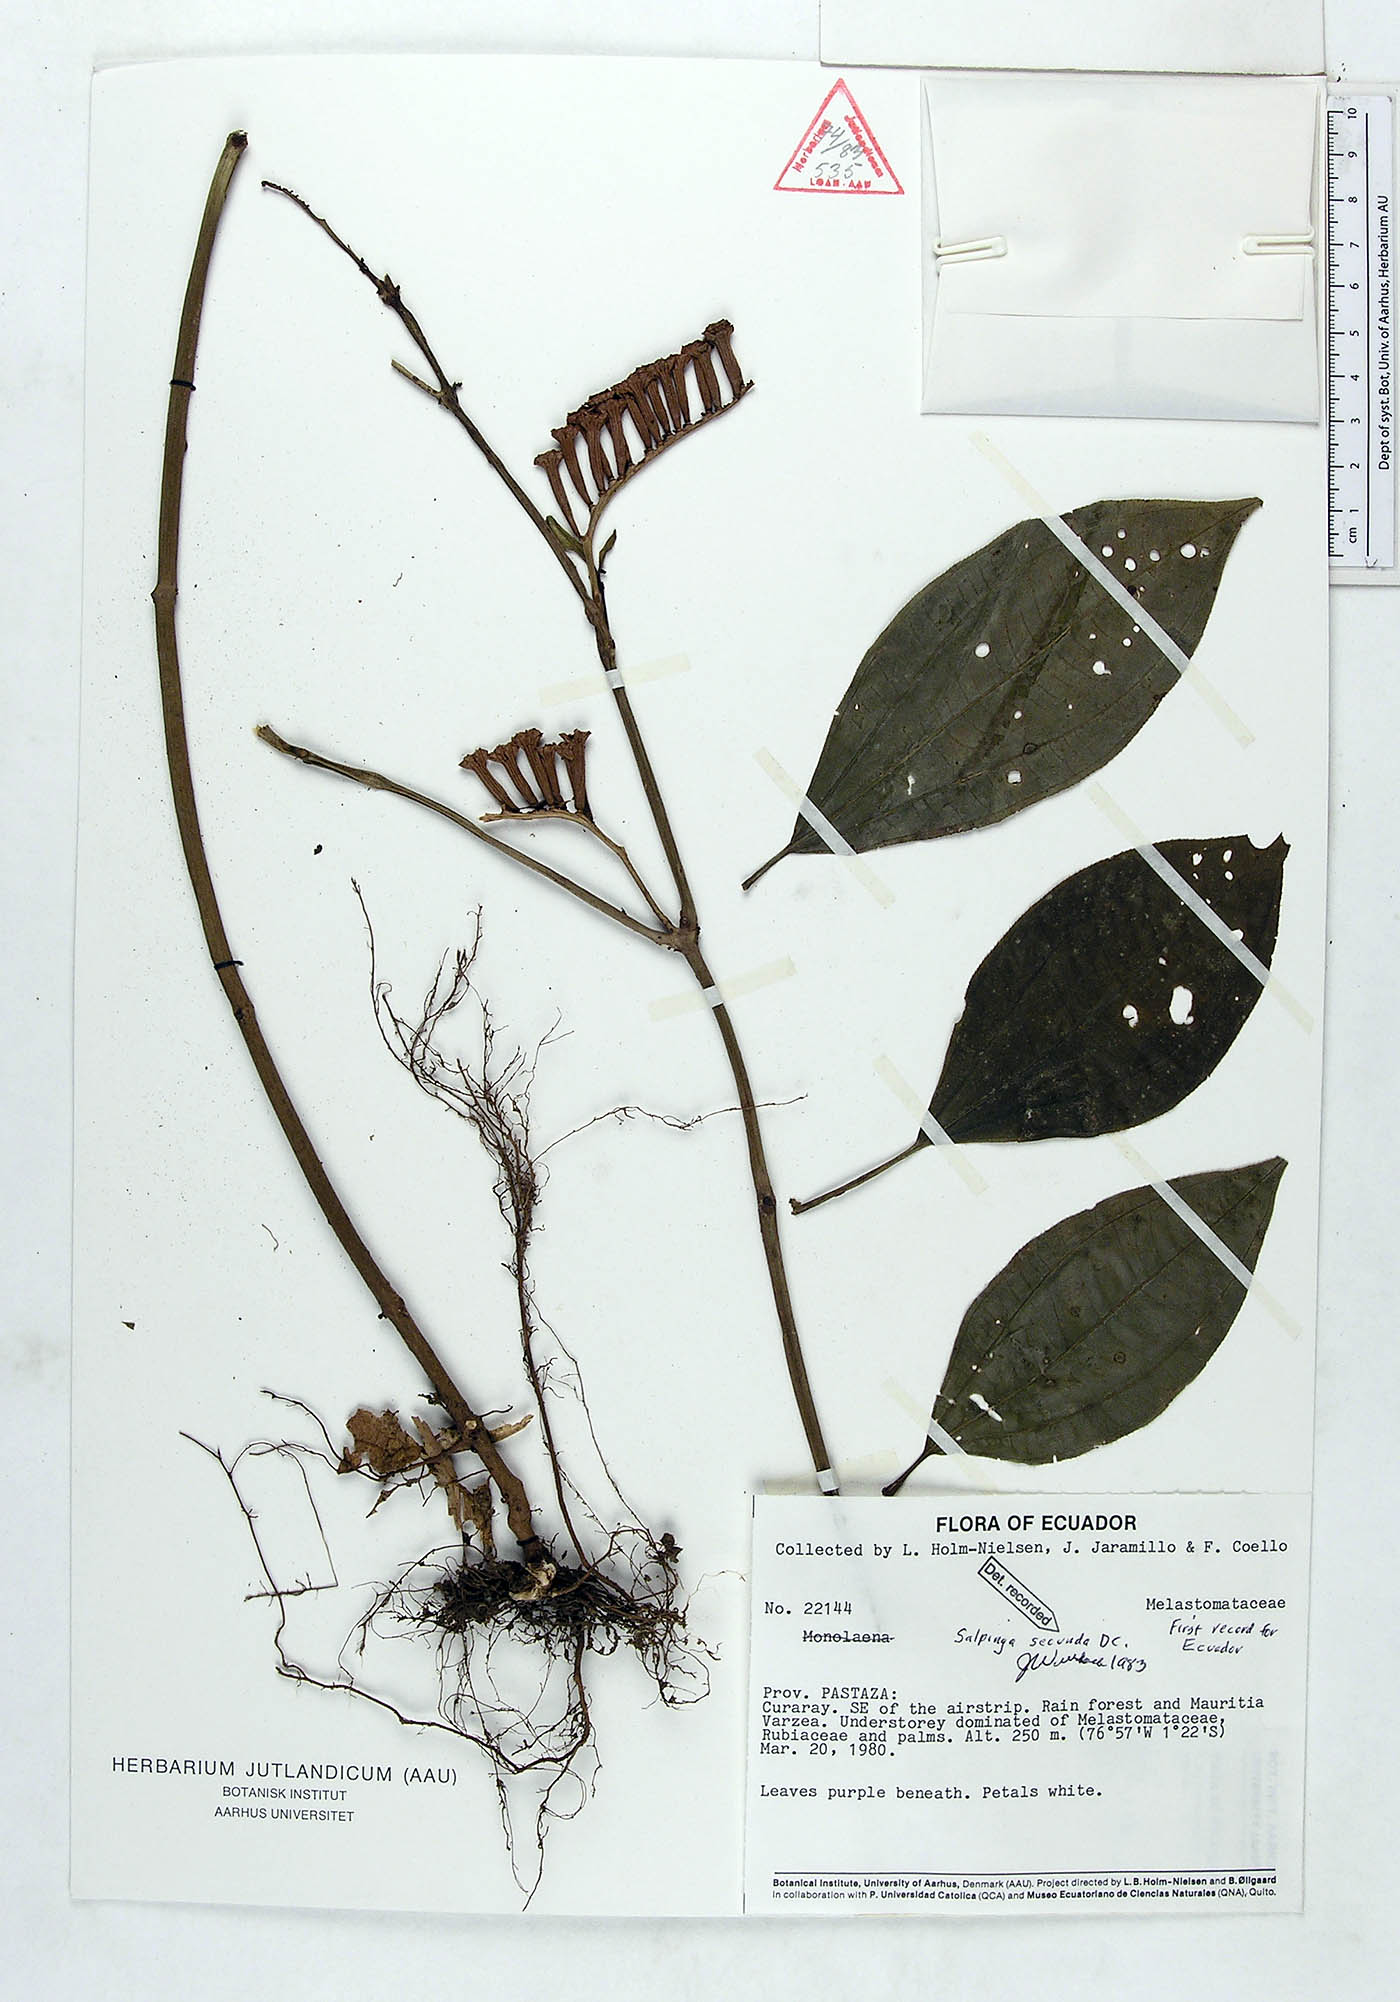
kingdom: Plantae
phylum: Tracheophyta
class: Magnoliopsida
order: Myrtales
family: Melastomataceae
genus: Salpinga
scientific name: Salpinga secunda
